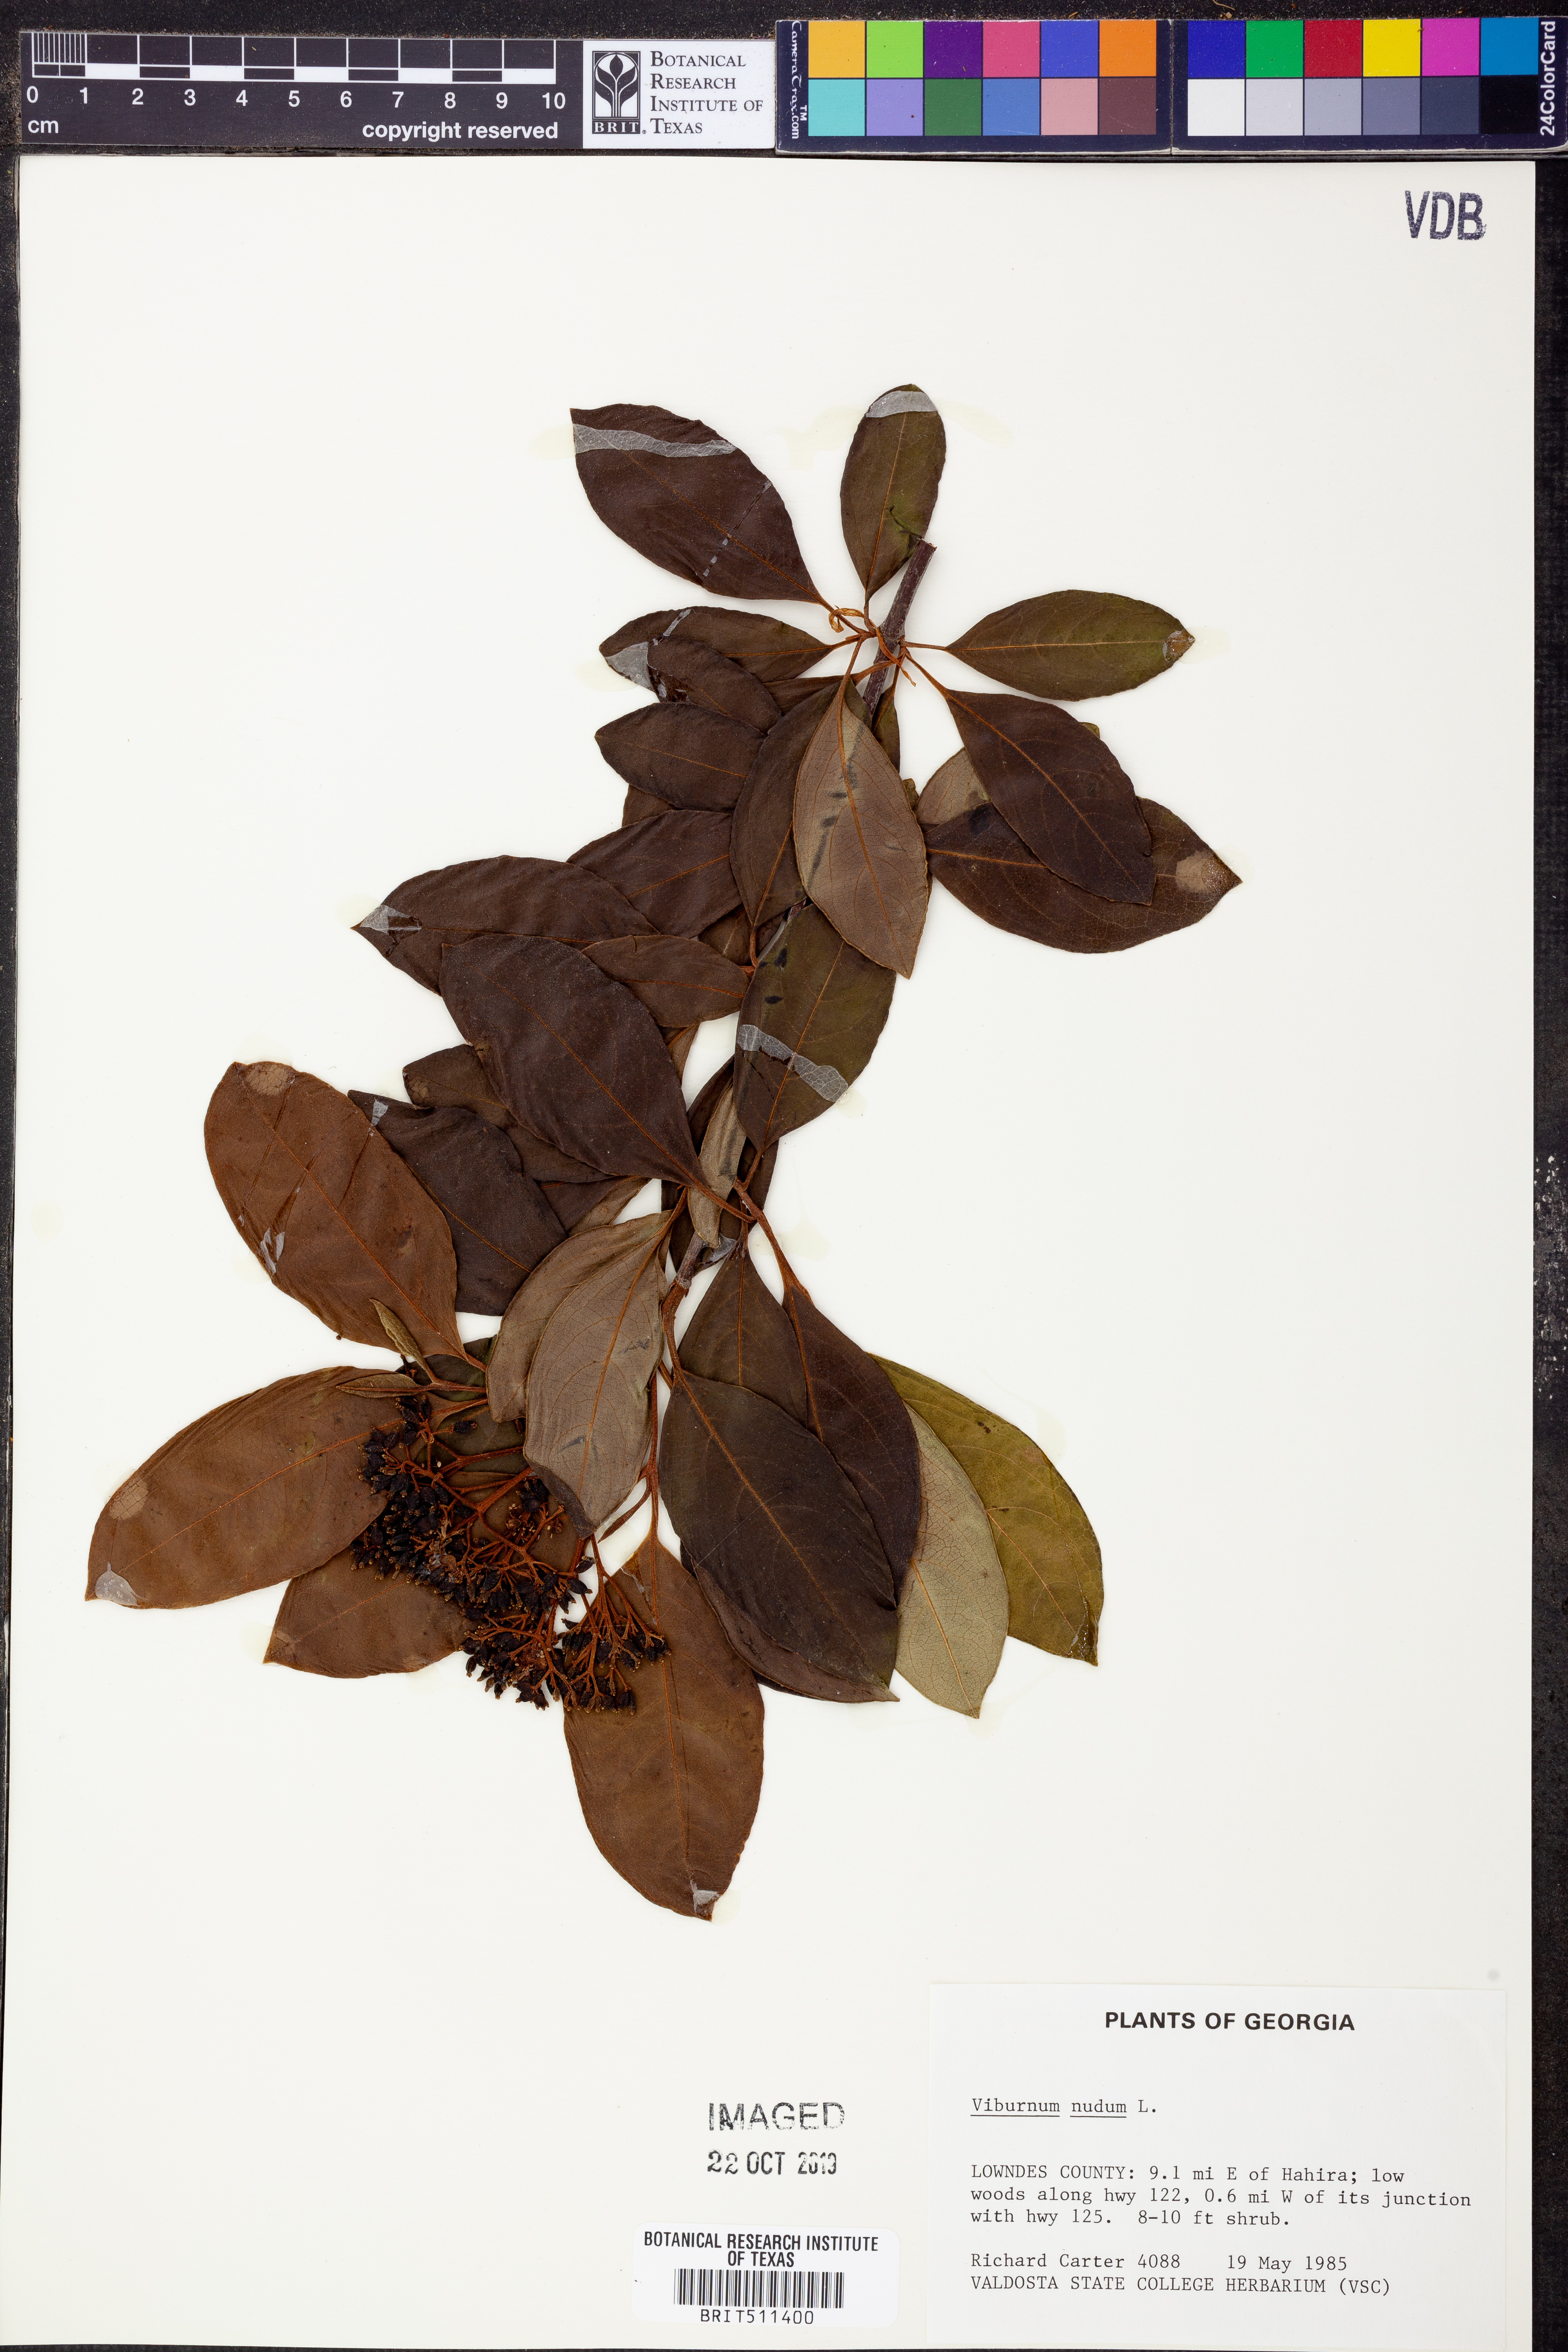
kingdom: Plantae
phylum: Tracheophyta
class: Magnoliopsida
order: Dipsacales
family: Viburnaceae
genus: Viburnum
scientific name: Viburnum nudum
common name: Possum haw
